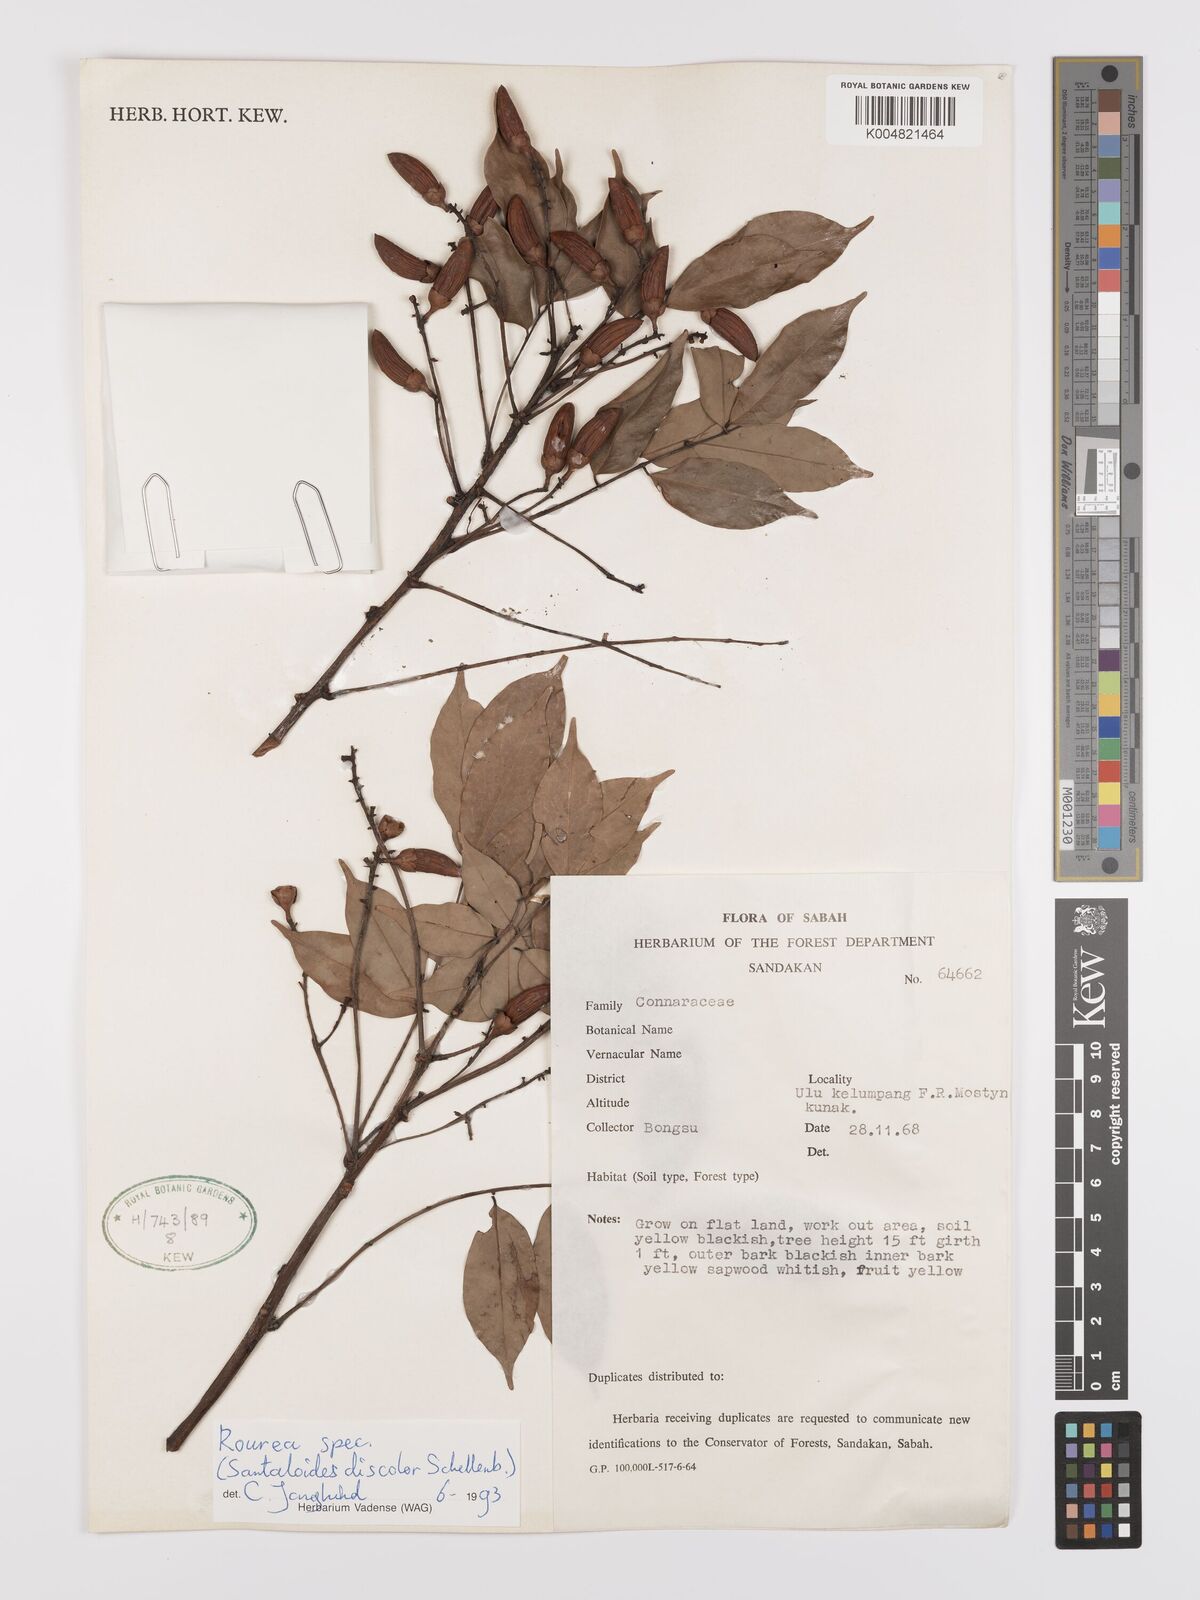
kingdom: Plantae
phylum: Tracheophyta
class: Magnoliopsida
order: Oxalidales
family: Connaraceae
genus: Rourea
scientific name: Rourea
